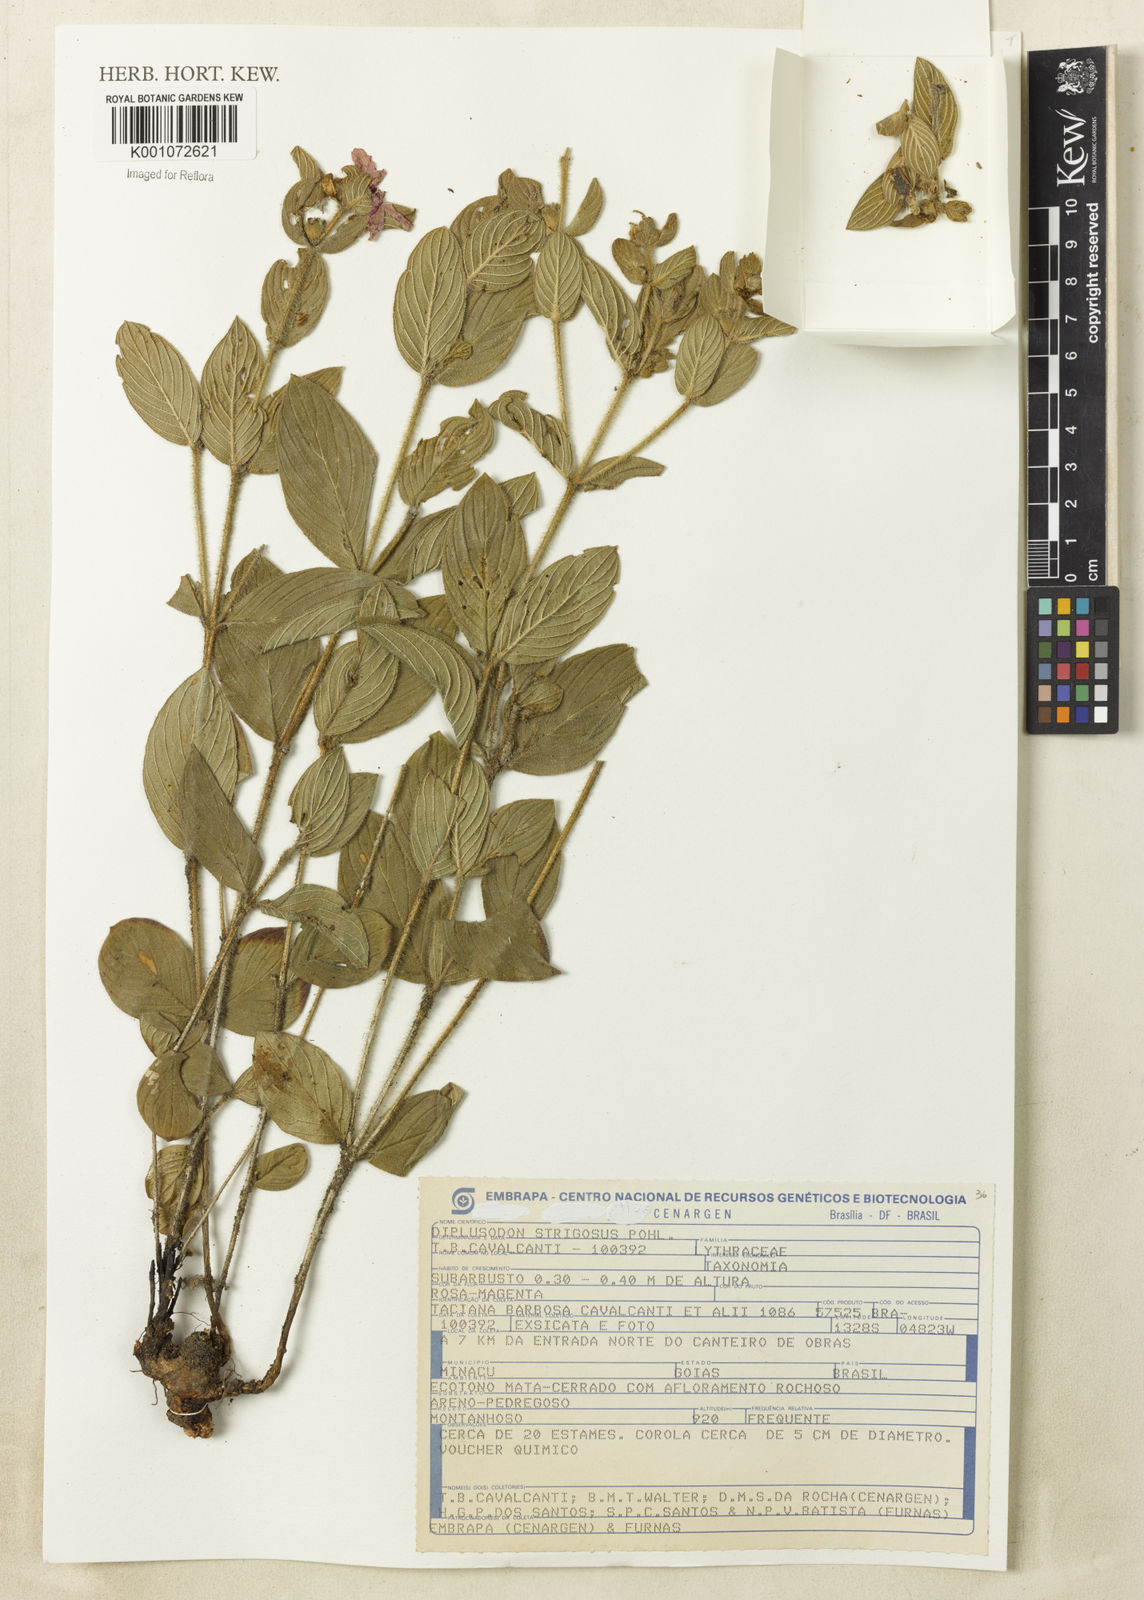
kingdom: Plantae
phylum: Tracheophyta
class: Magnoliopsida
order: Myrtales
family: Lythraceae
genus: Diplusodon
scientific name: Diplusodon strigosus
